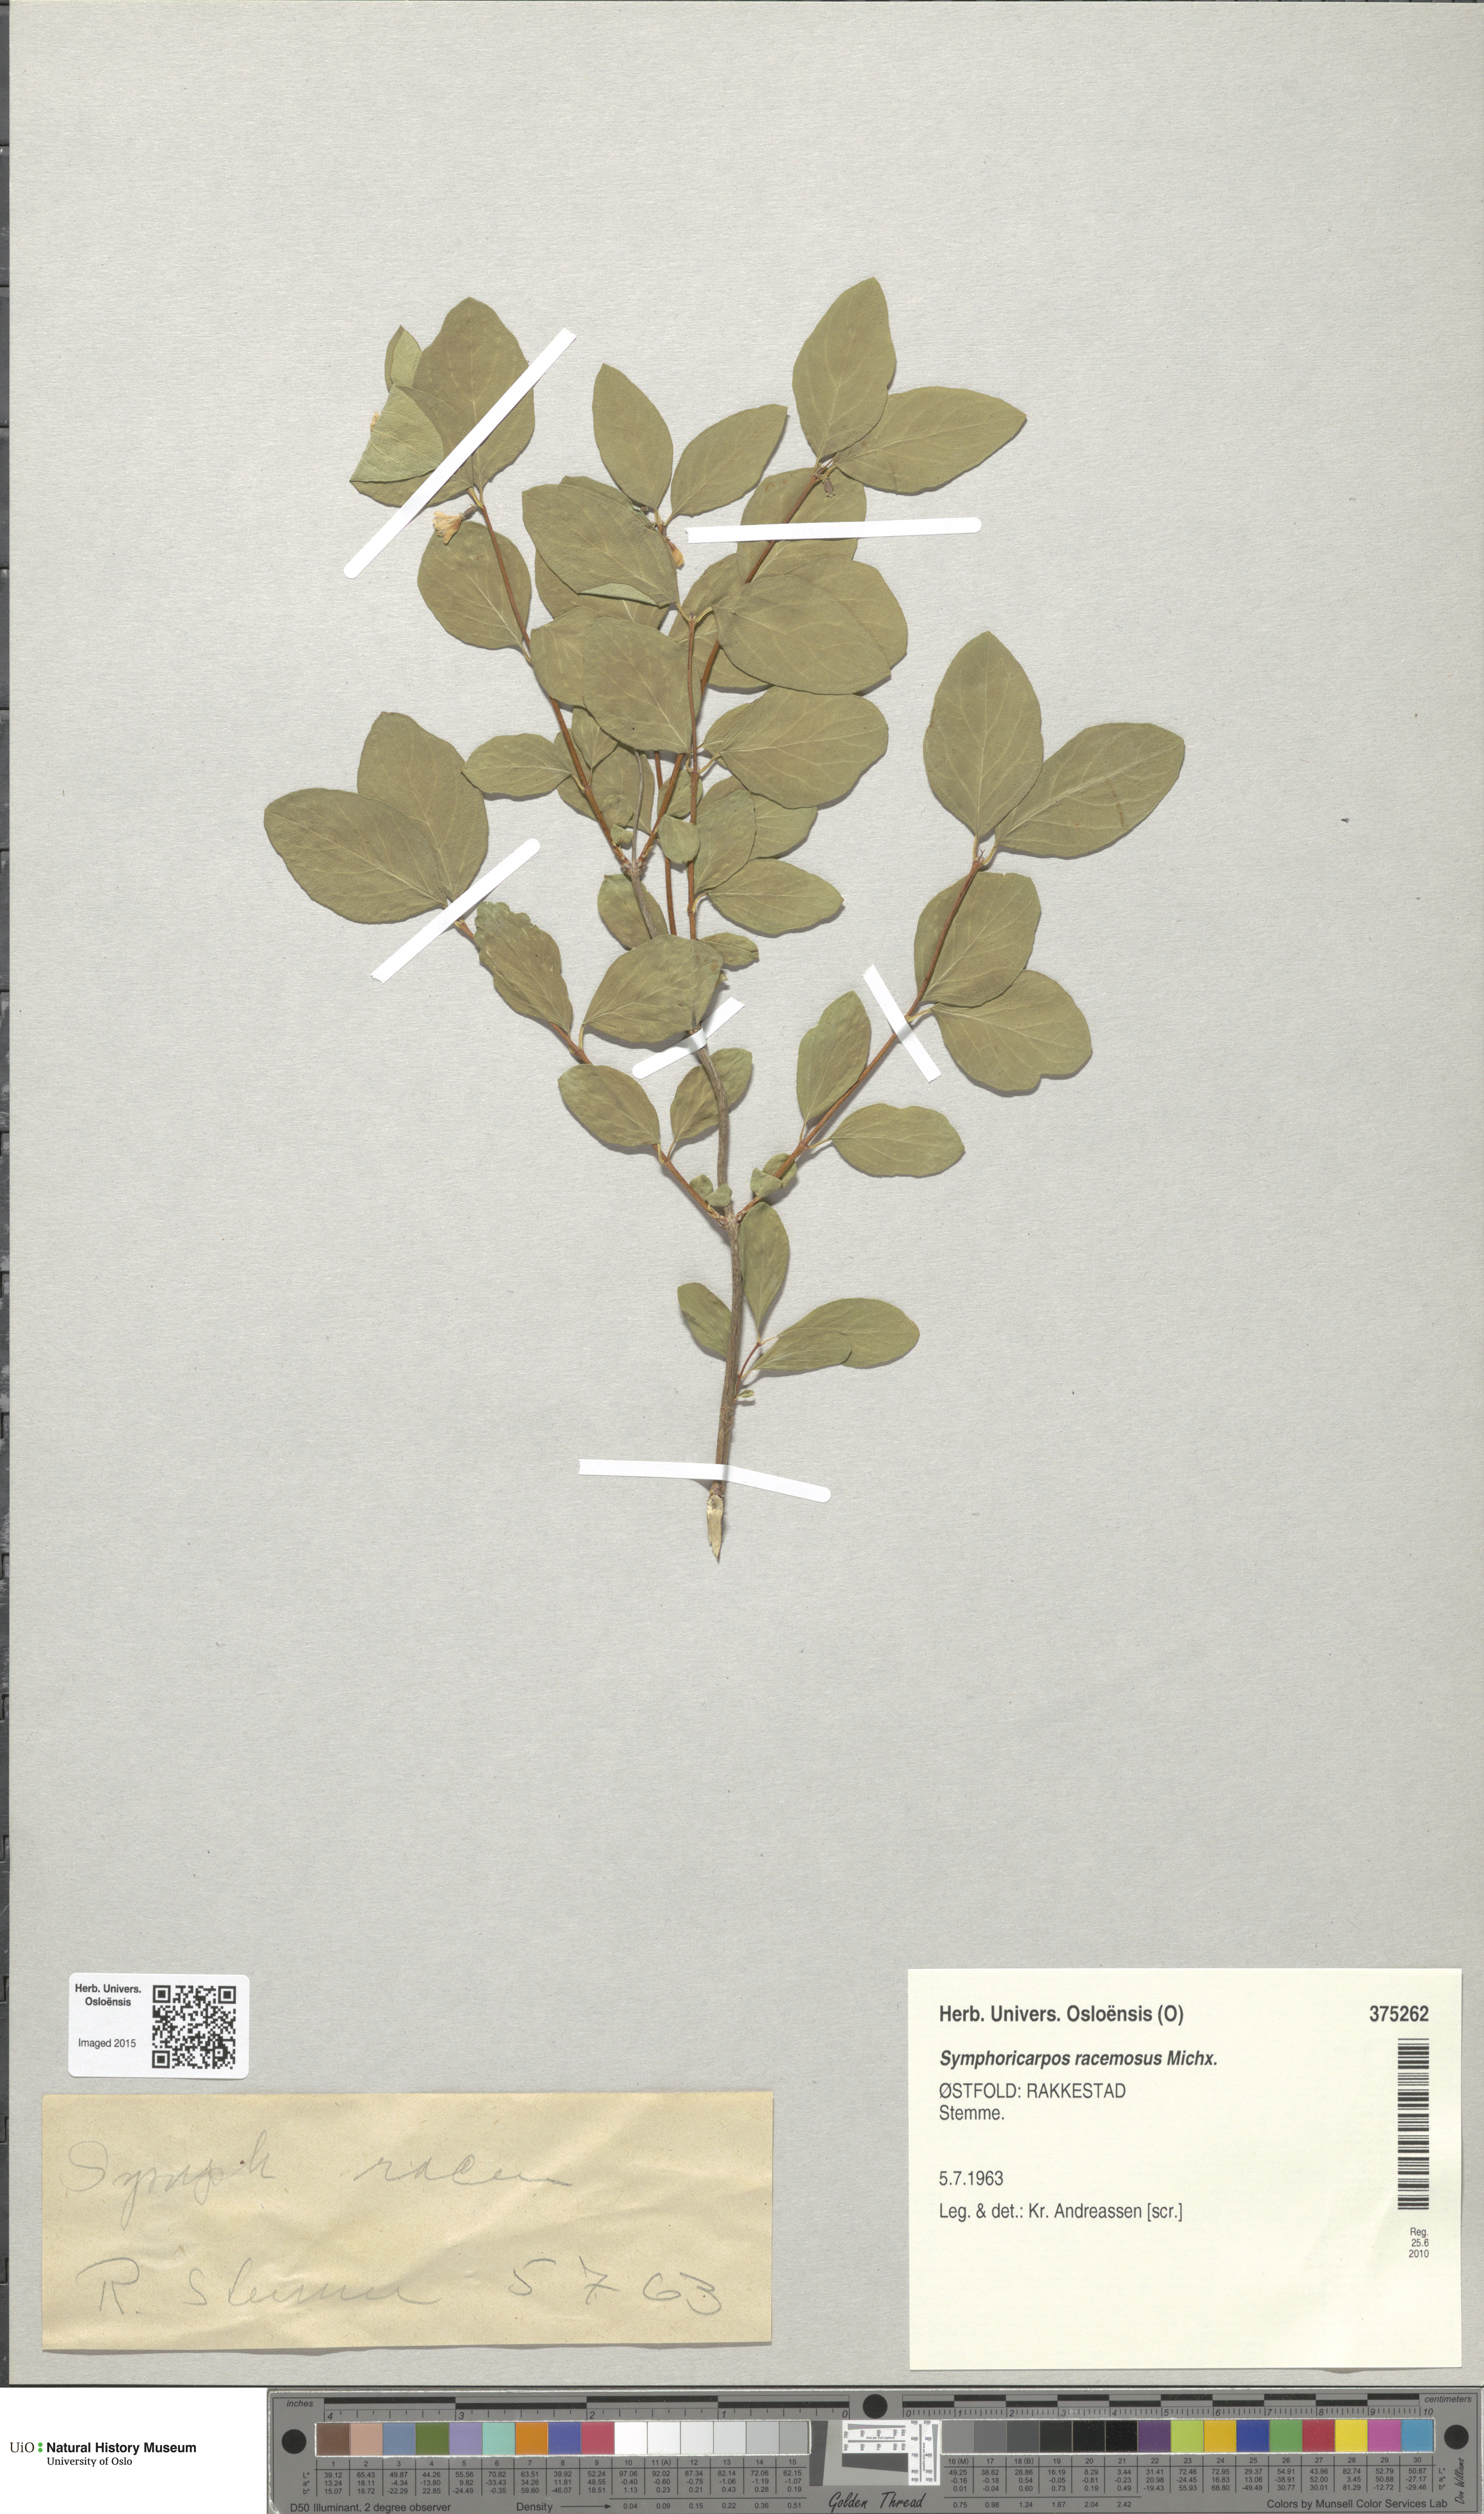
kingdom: Plantae
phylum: Tracheophyta
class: Magnoliopsida
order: Dipsacales
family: Caprifoliaceae
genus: Symphoricarpos
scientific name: Symphoricarpos albus
